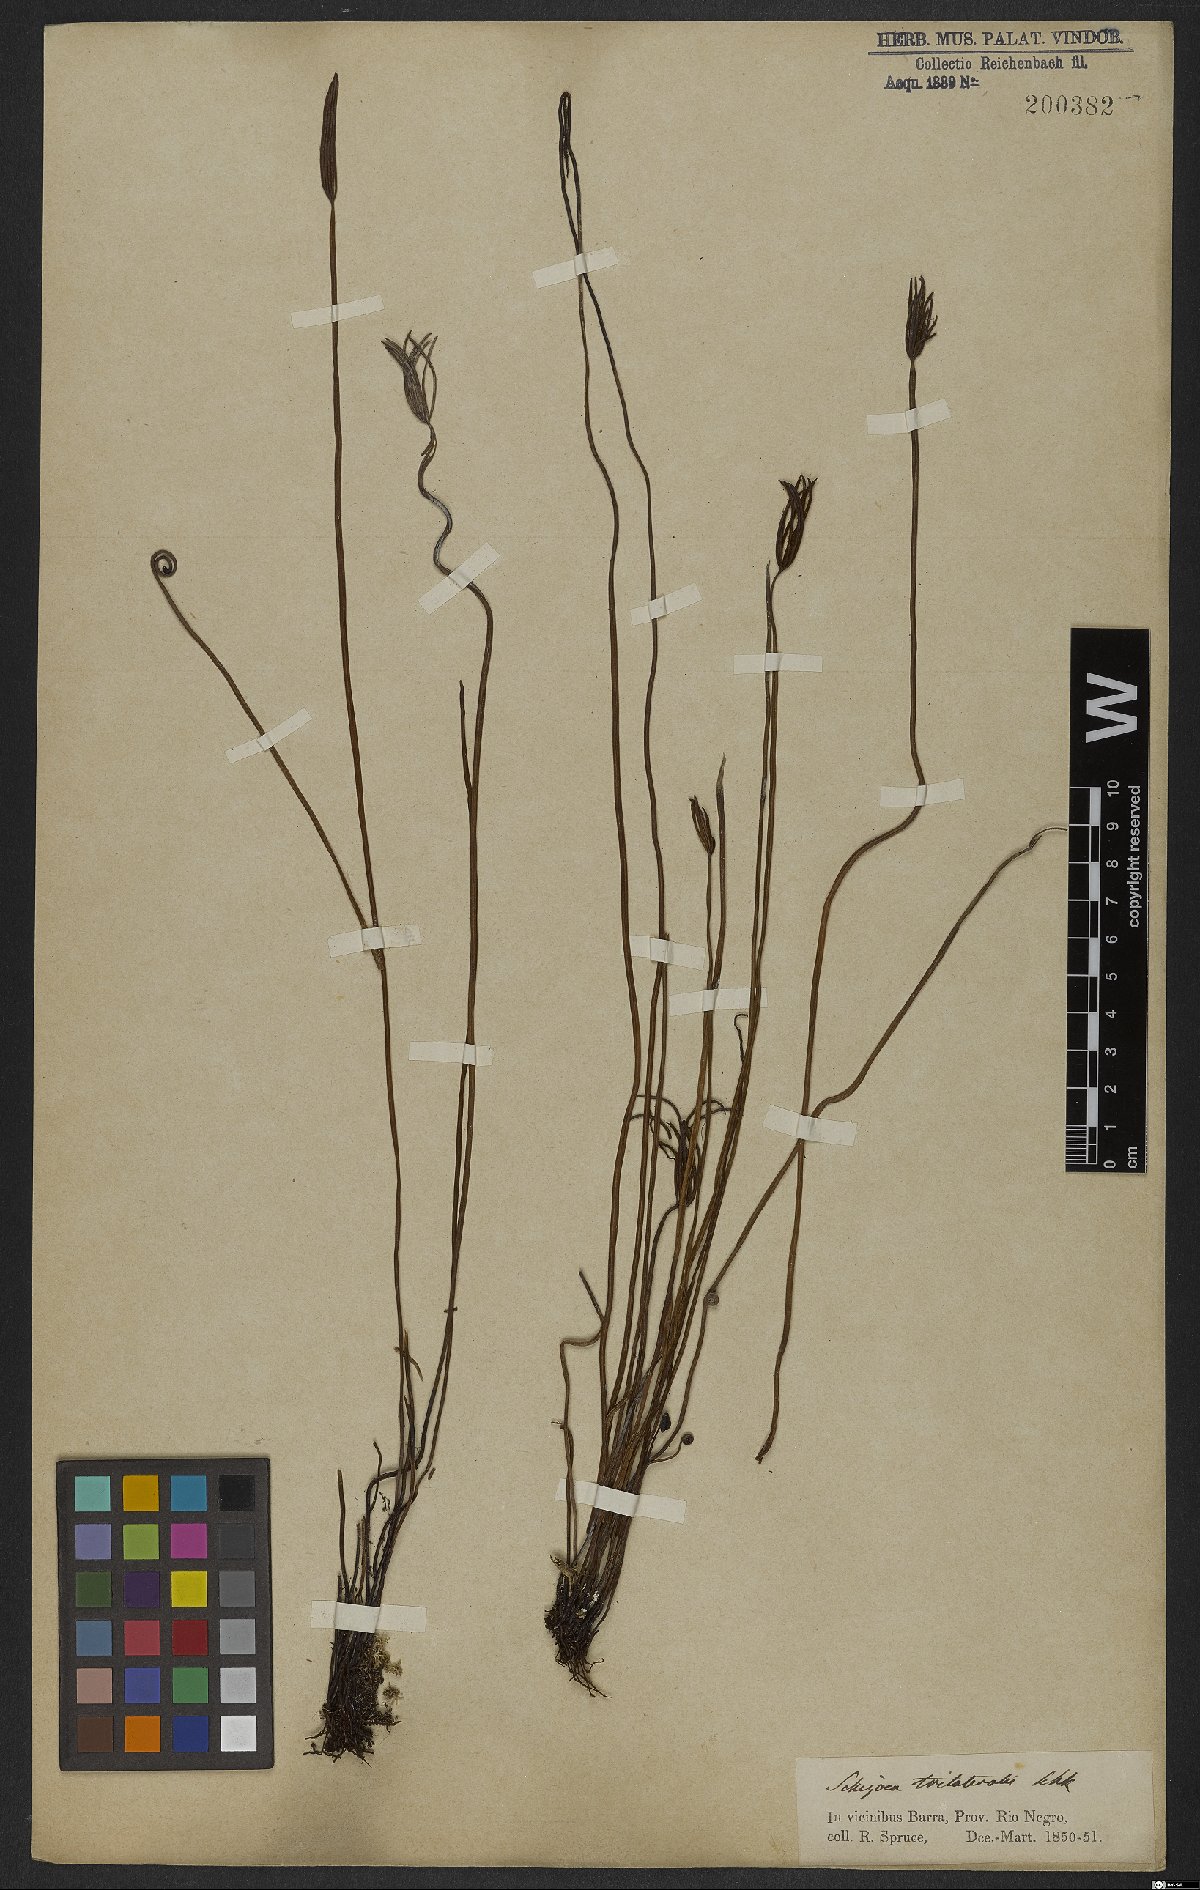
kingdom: Plantae
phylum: Tracheophyta
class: Polypodiopsida
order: Schizaeales
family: Schizaeaceae
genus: Actinostachys
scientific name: Actinostachys pennula
